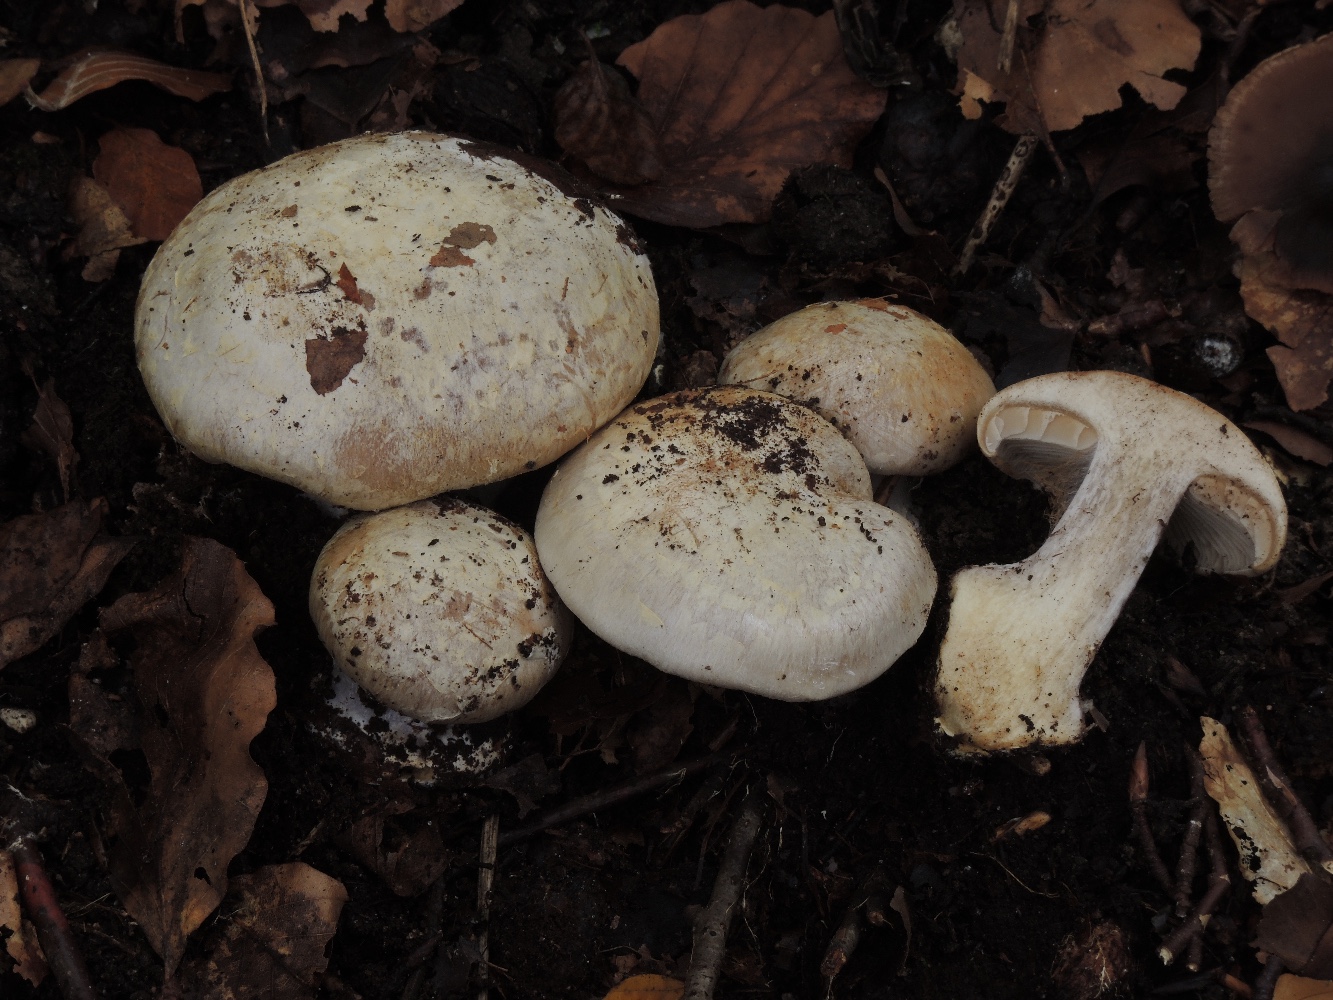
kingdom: Fungi
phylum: Basidiomycota
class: Agaricomycetes
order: Agaricales
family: Cortinariaceae
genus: Cortinarius
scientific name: Cortinarius foetens
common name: stribet slørhat
